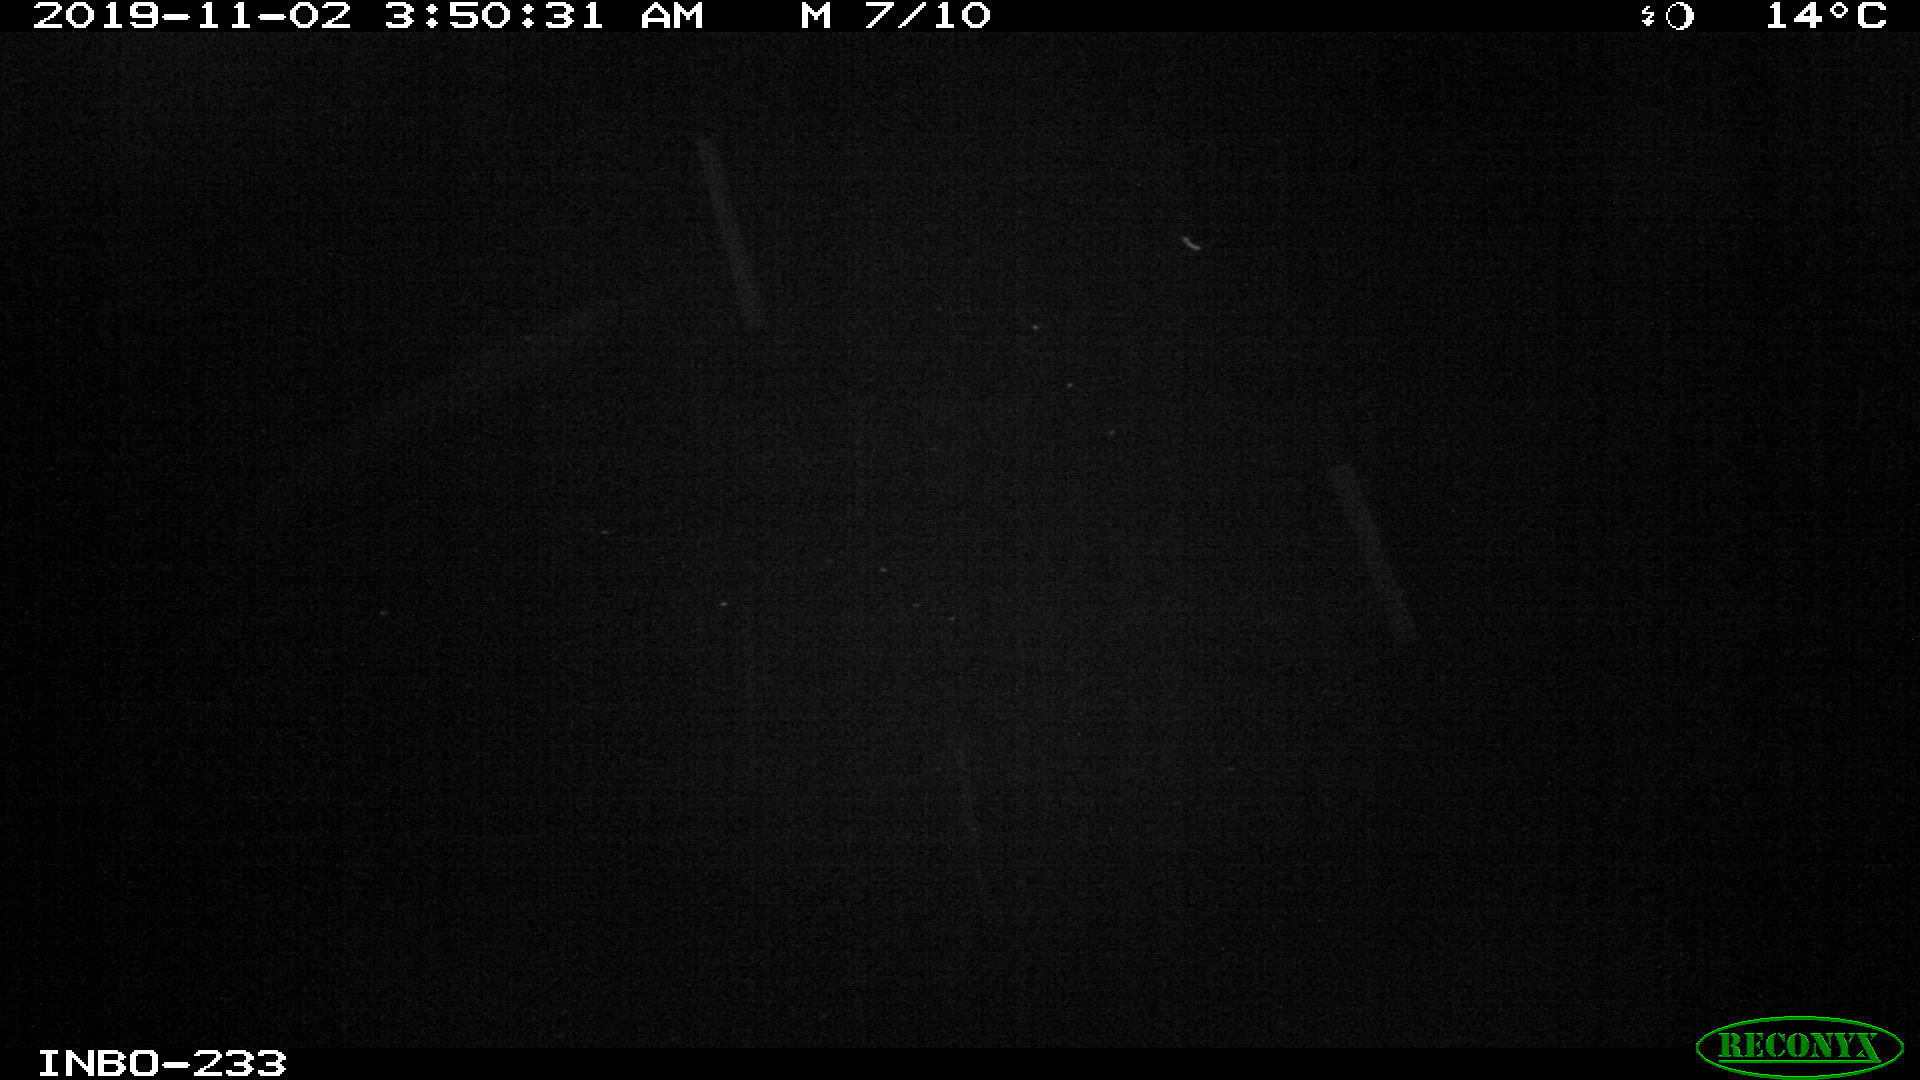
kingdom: Animalia
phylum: Chordata
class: Aves
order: Anseriformes
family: Anatidae
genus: Anas
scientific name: Anas platyrhynchos
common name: Mallard
